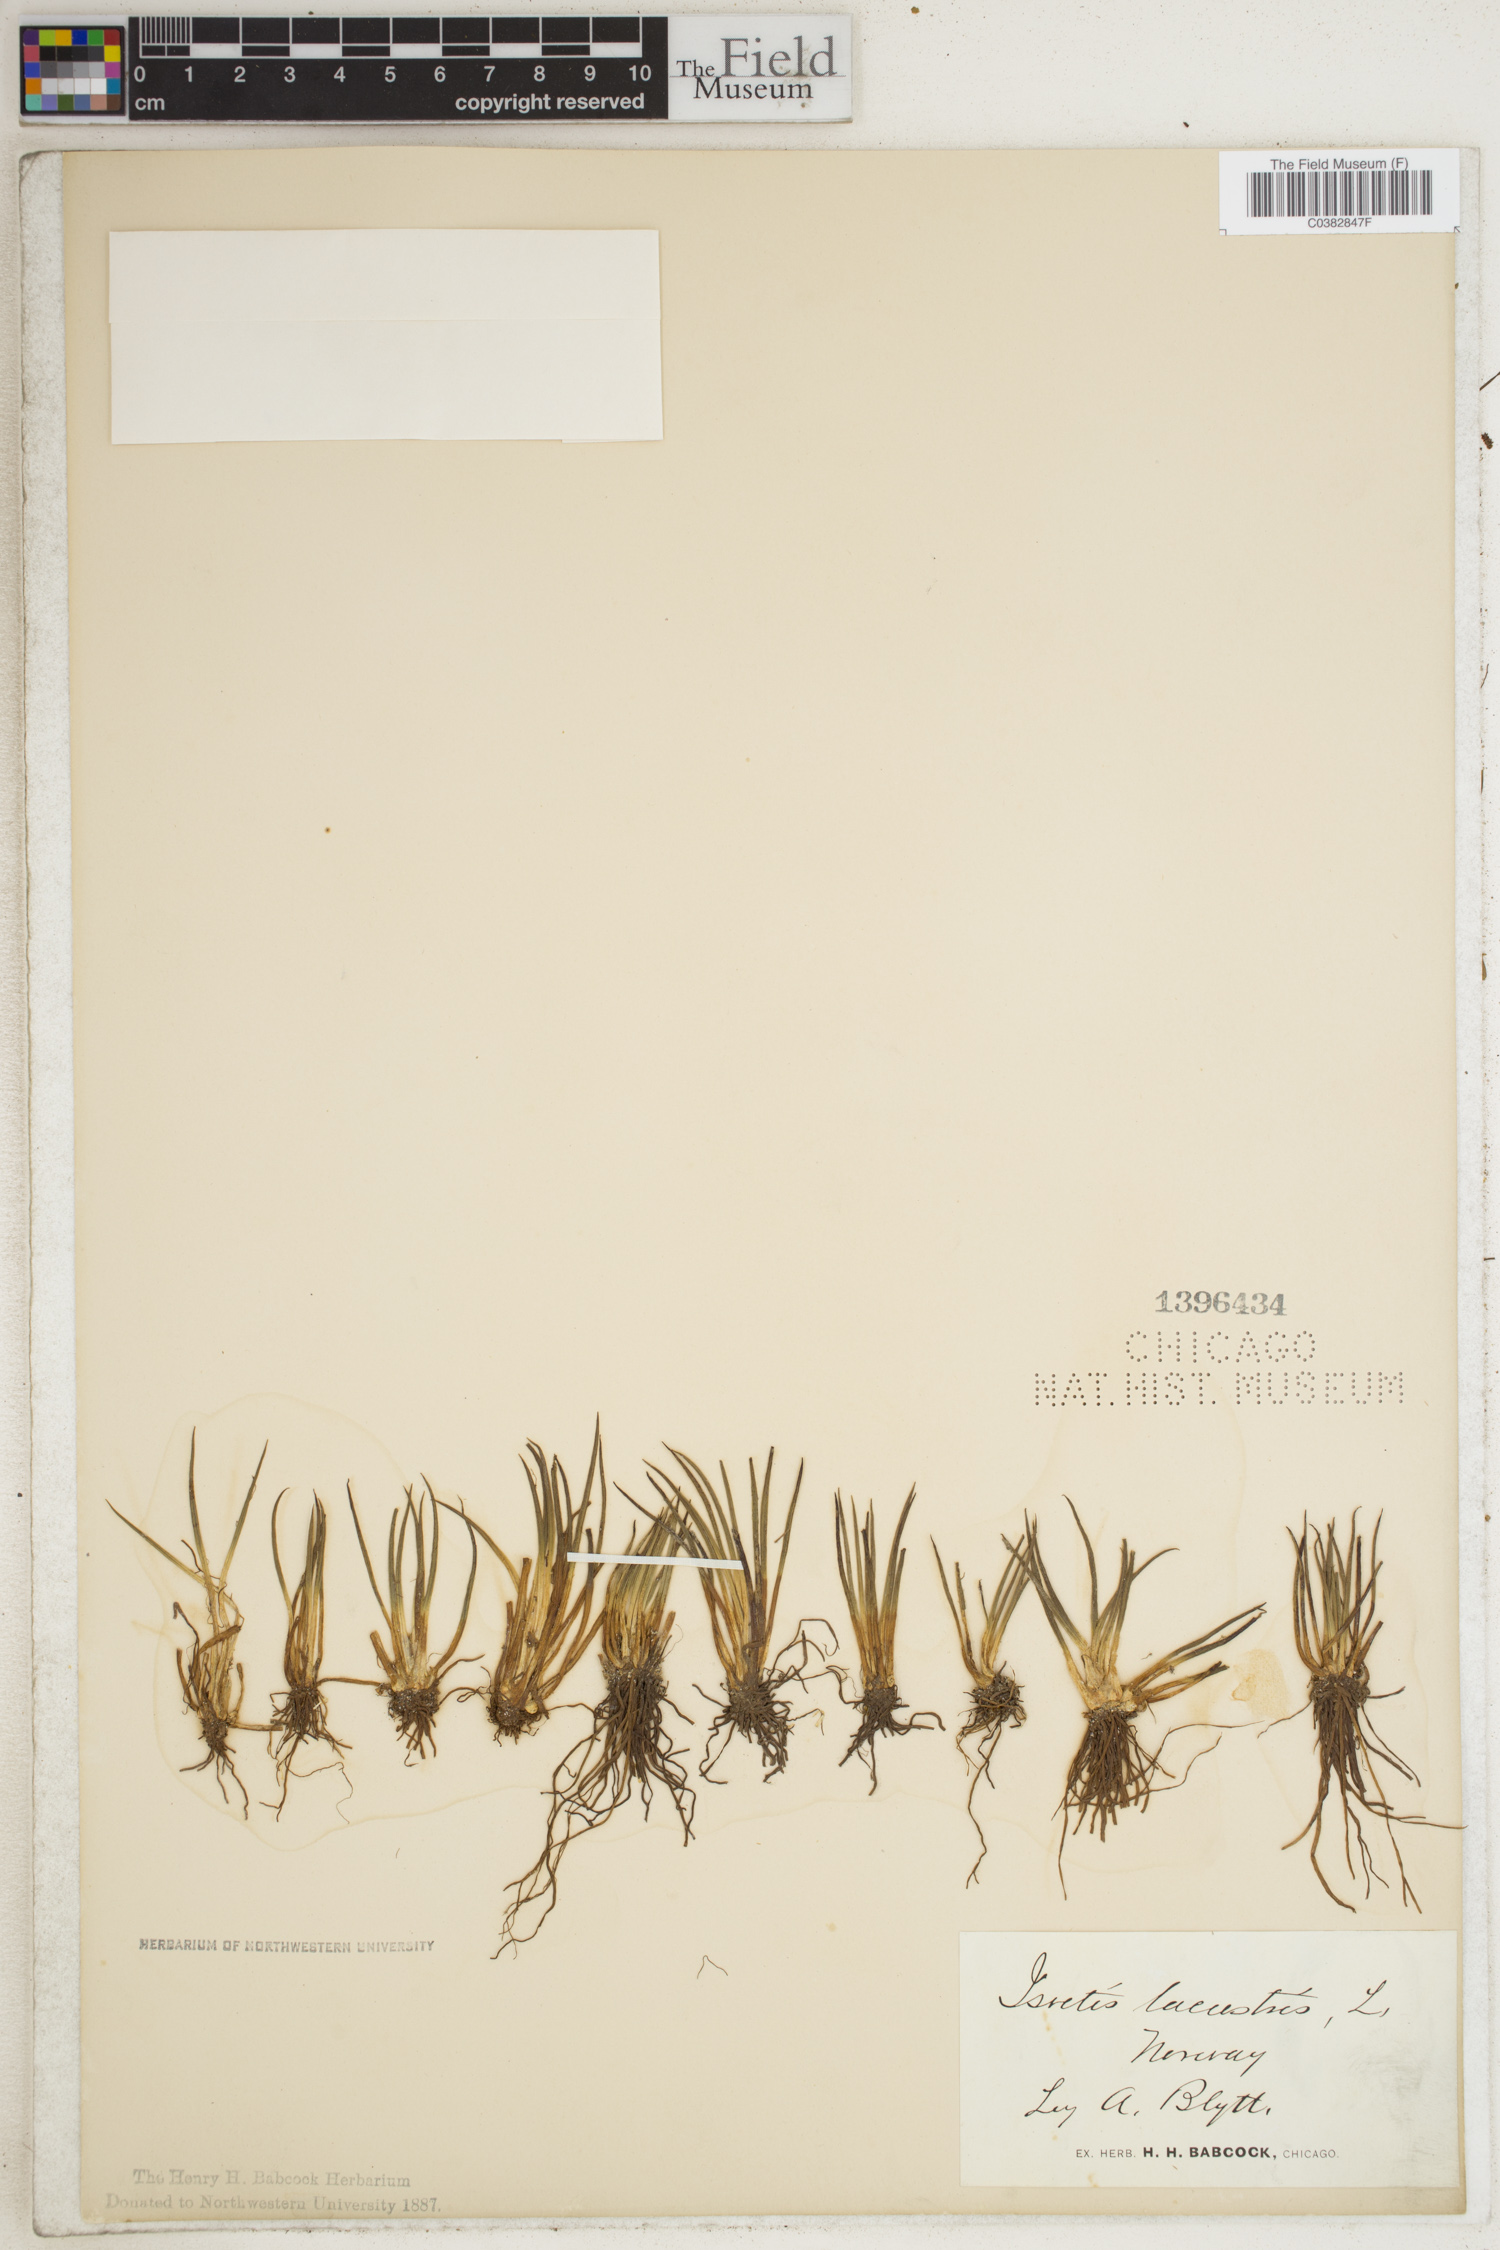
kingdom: Plantae
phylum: Tracheophyta
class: Lycopodiopsida
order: Isoetales
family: Isoetaceae
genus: Isoetes
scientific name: Isoetes lacustris
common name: Common quillwort
